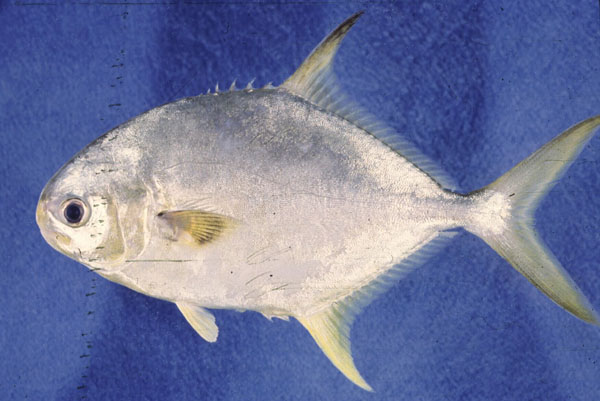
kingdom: Animalia
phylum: Chordata
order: Perciformes
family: Carangidae
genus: Trachinotus
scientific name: Trachinotus blochii
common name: Snubnose pompano
